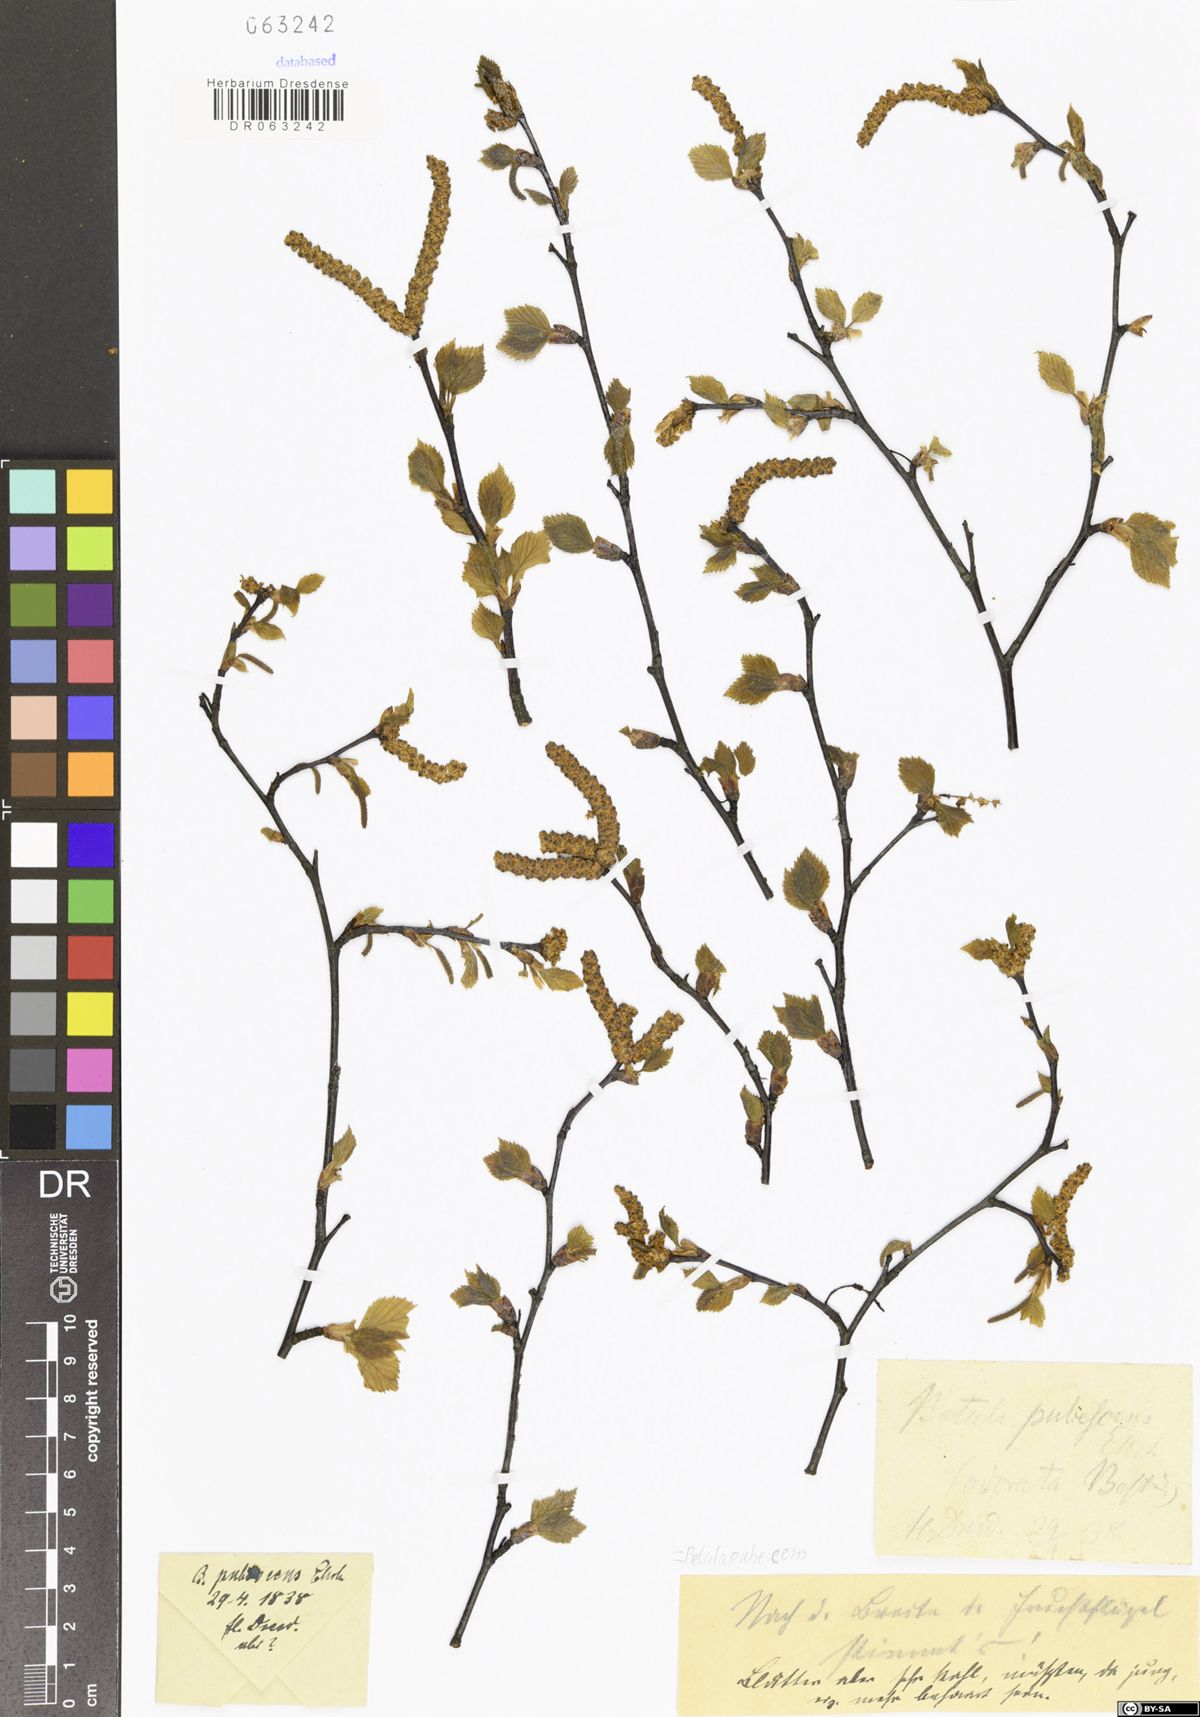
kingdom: Plantae
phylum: Tracheophyta
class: Magnoliopsida
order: Fagales
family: Betulaceae
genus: Betula
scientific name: Betula pubescens
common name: Downy birch
